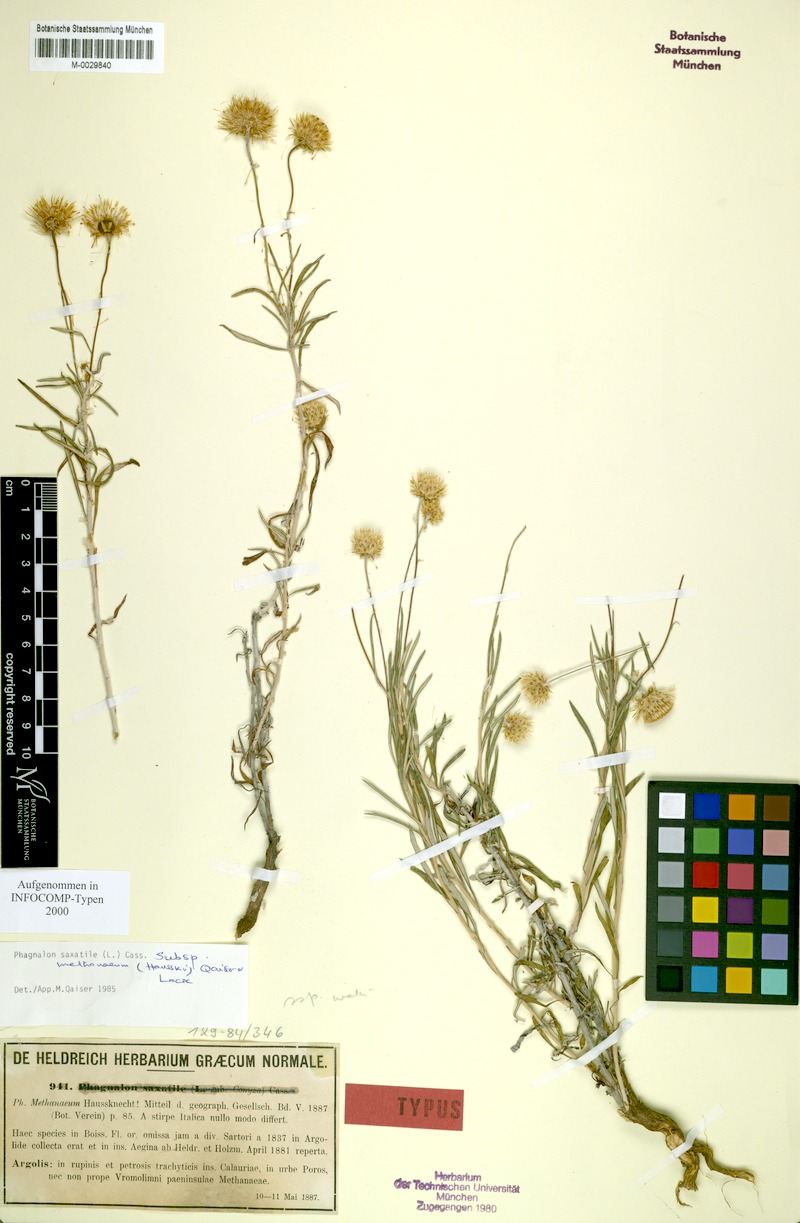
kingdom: Plantae
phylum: Tracheophyta
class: Magnoliopsida
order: Asterales
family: Asteraceae
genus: Phagnalon
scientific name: Phagnalon saxatile
